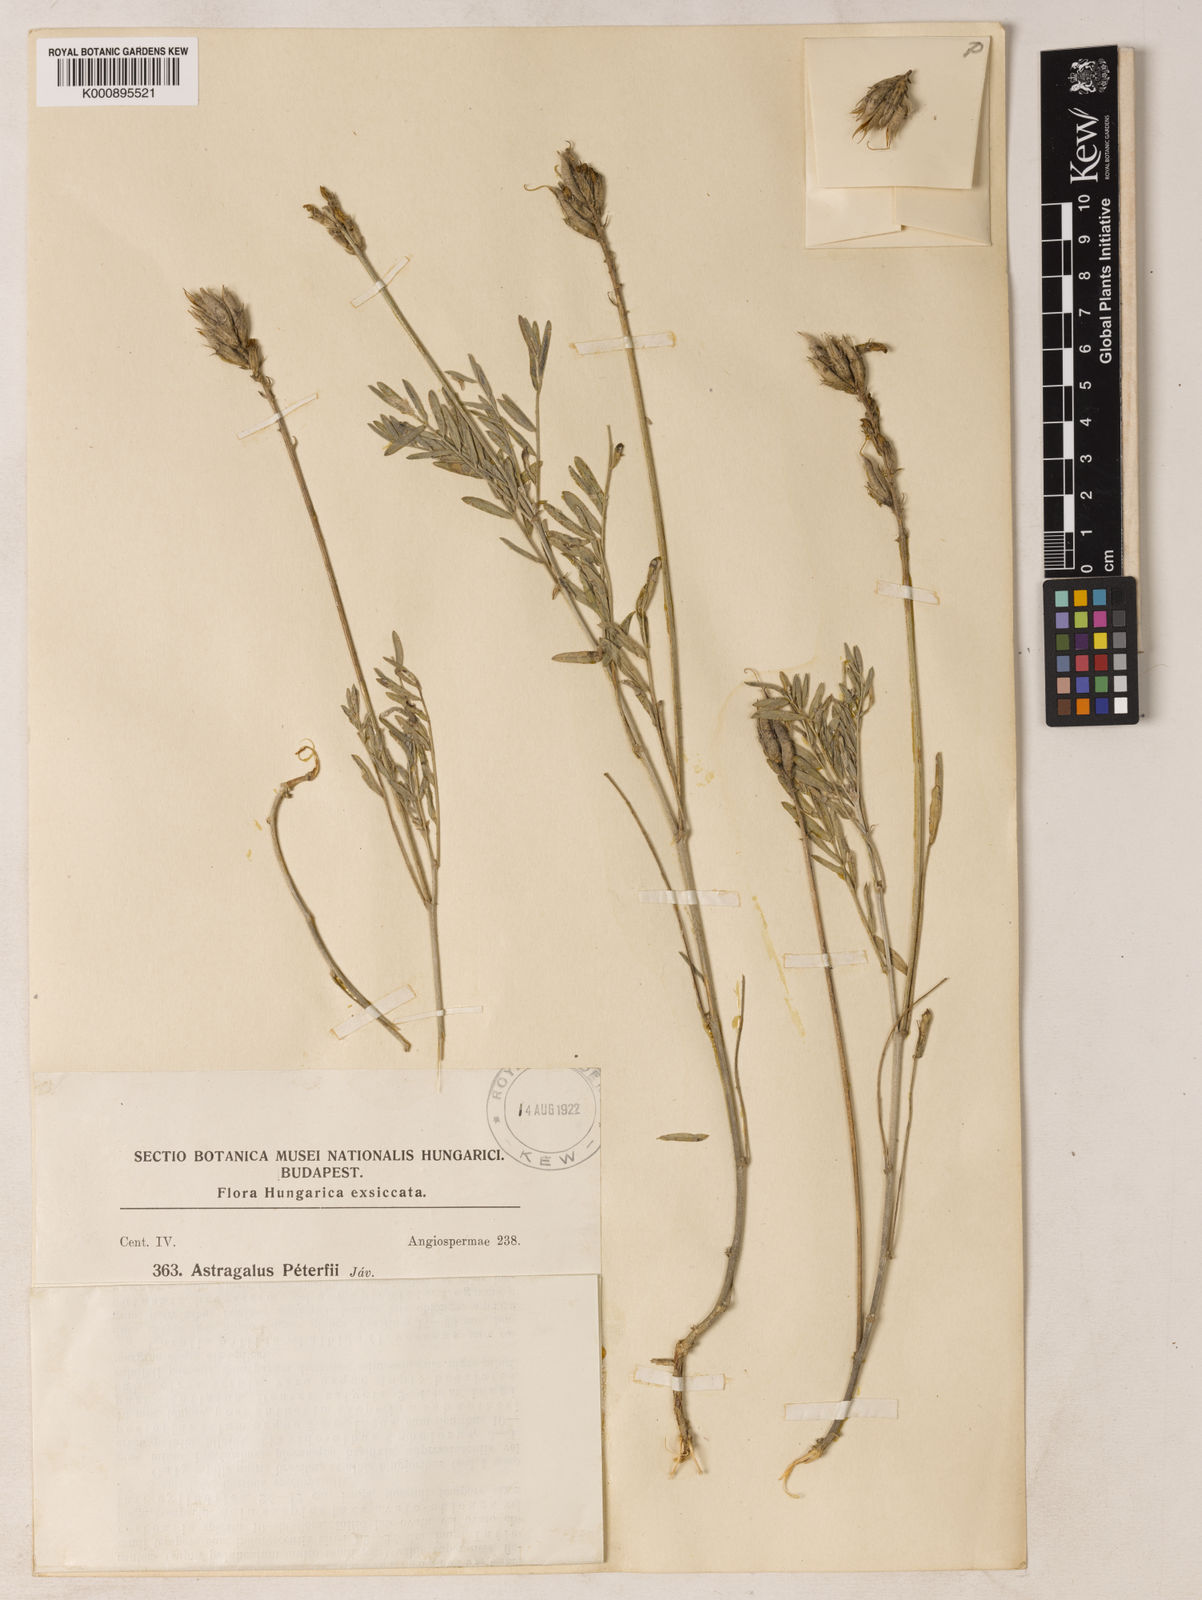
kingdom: Plantae
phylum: Tracheophyta
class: Magnoliopsida
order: Fabales
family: Fabaceae
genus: Astragalus
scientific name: Astragalus
